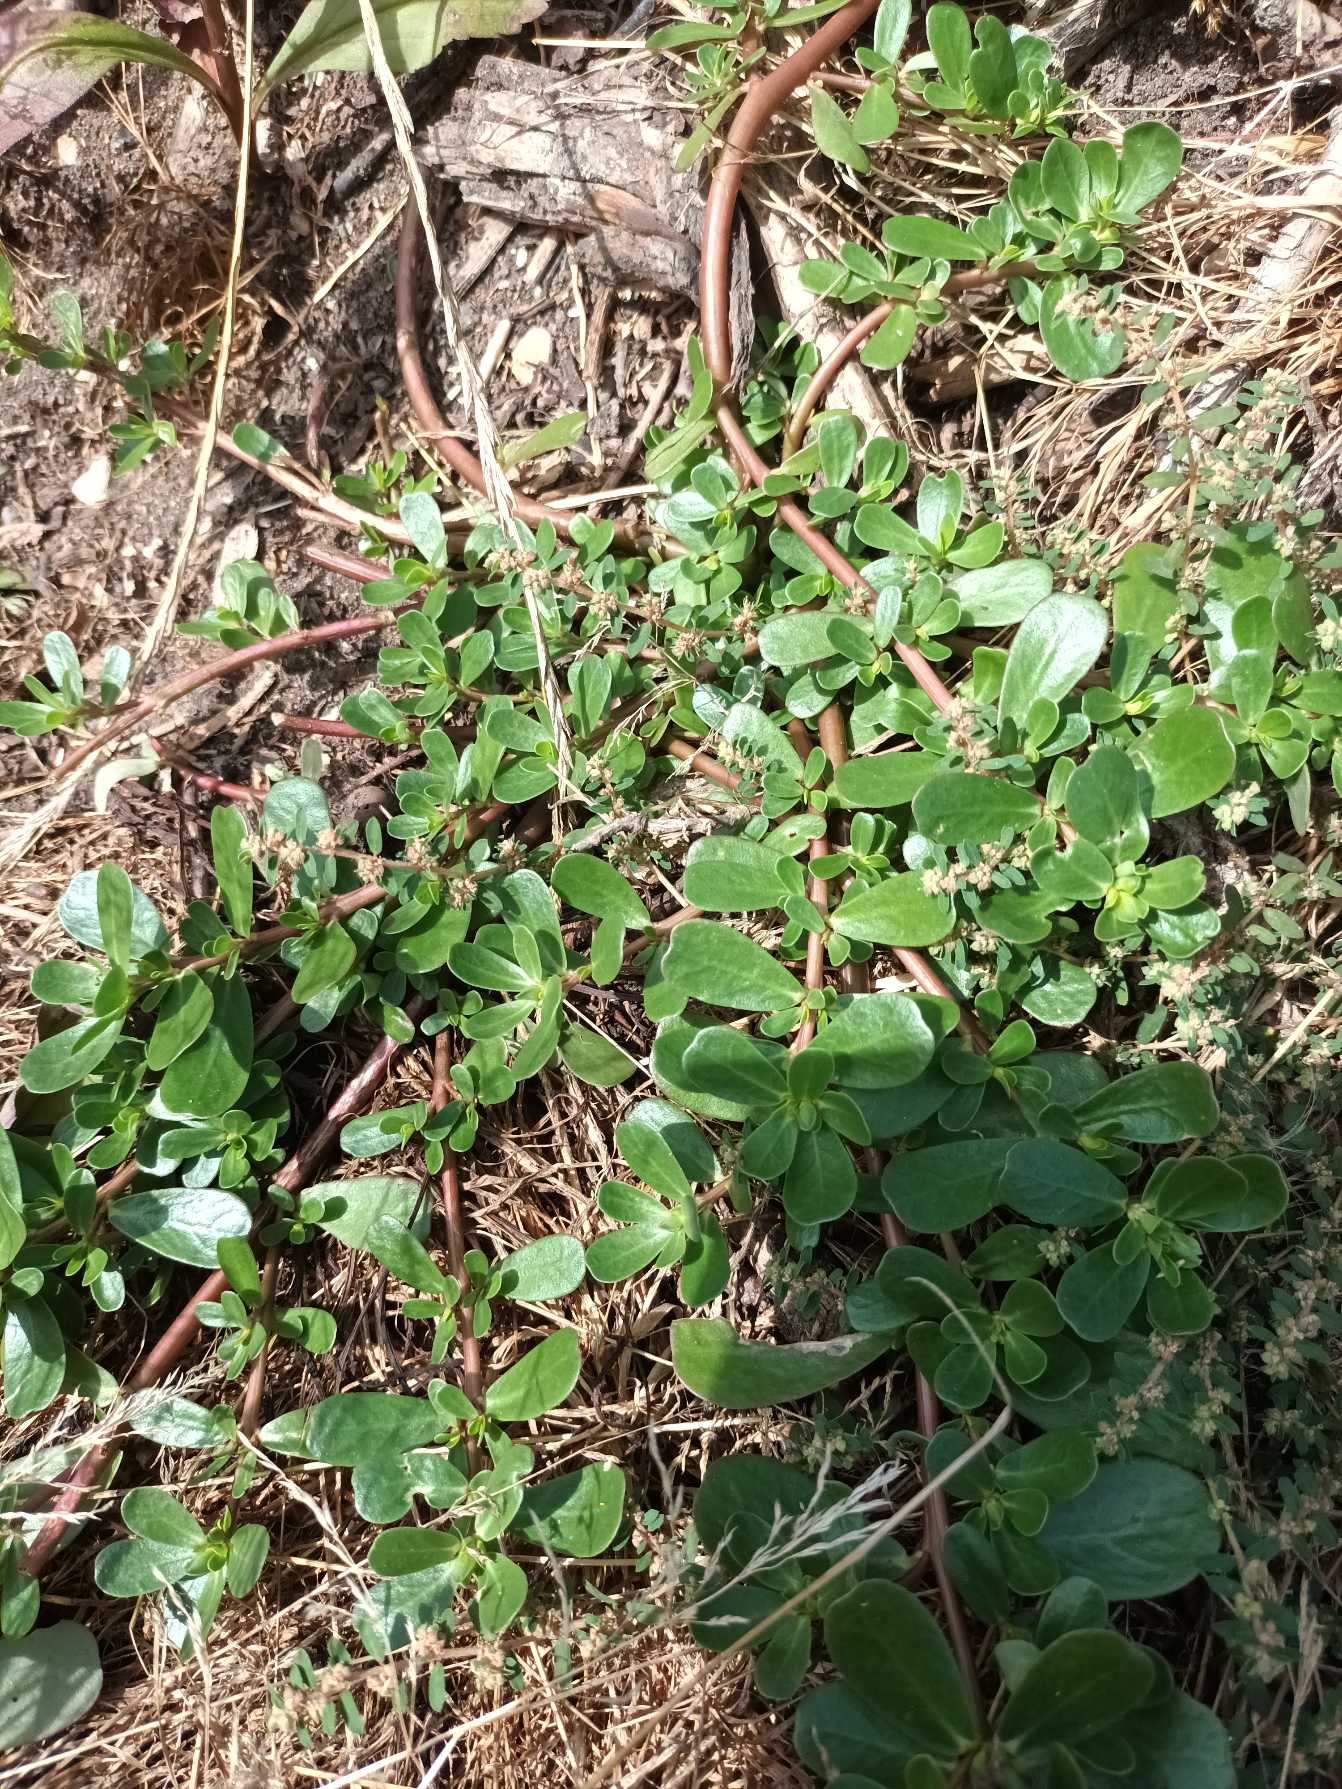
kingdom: Plantae
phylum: Tracheophyta
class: Magnoliopsida
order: Caryophyllales
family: Portulacaceae
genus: Portulaca
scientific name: Portulaca oleracea
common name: Portulak
